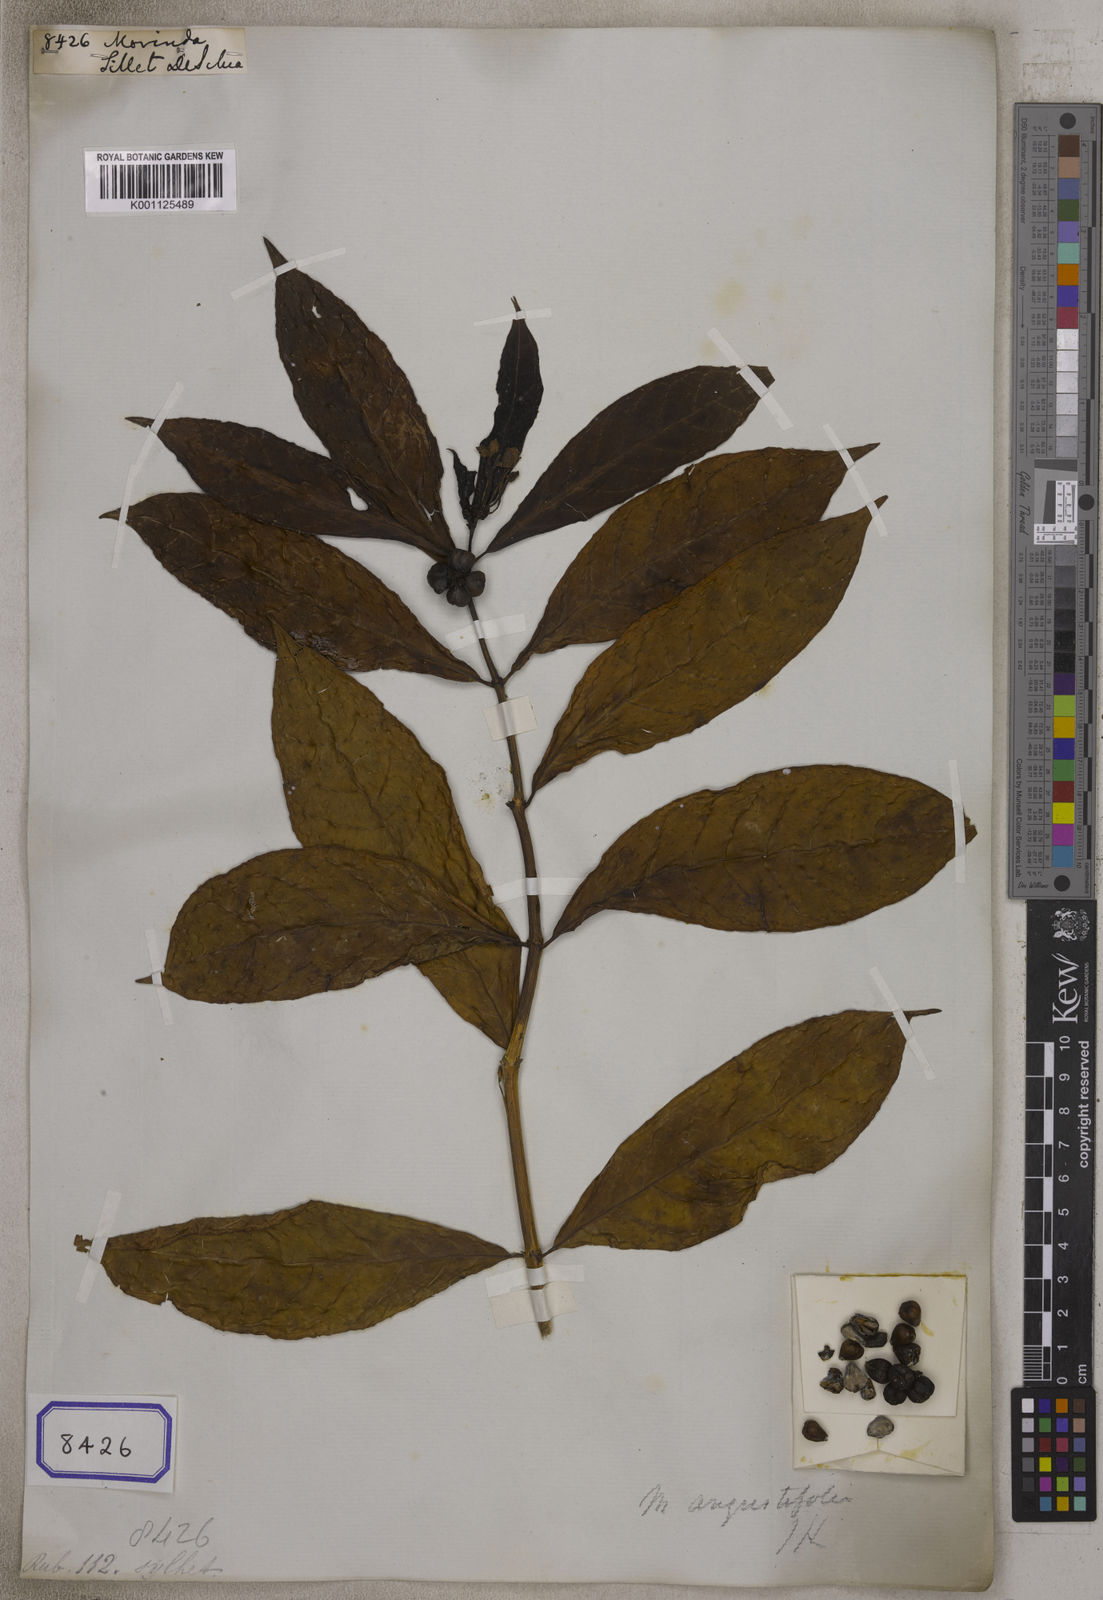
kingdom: Plantae
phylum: Tracheophyta
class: Magnoliopsida
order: Gentianales
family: Rubiaceae
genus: Morinda
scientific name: Morinda
